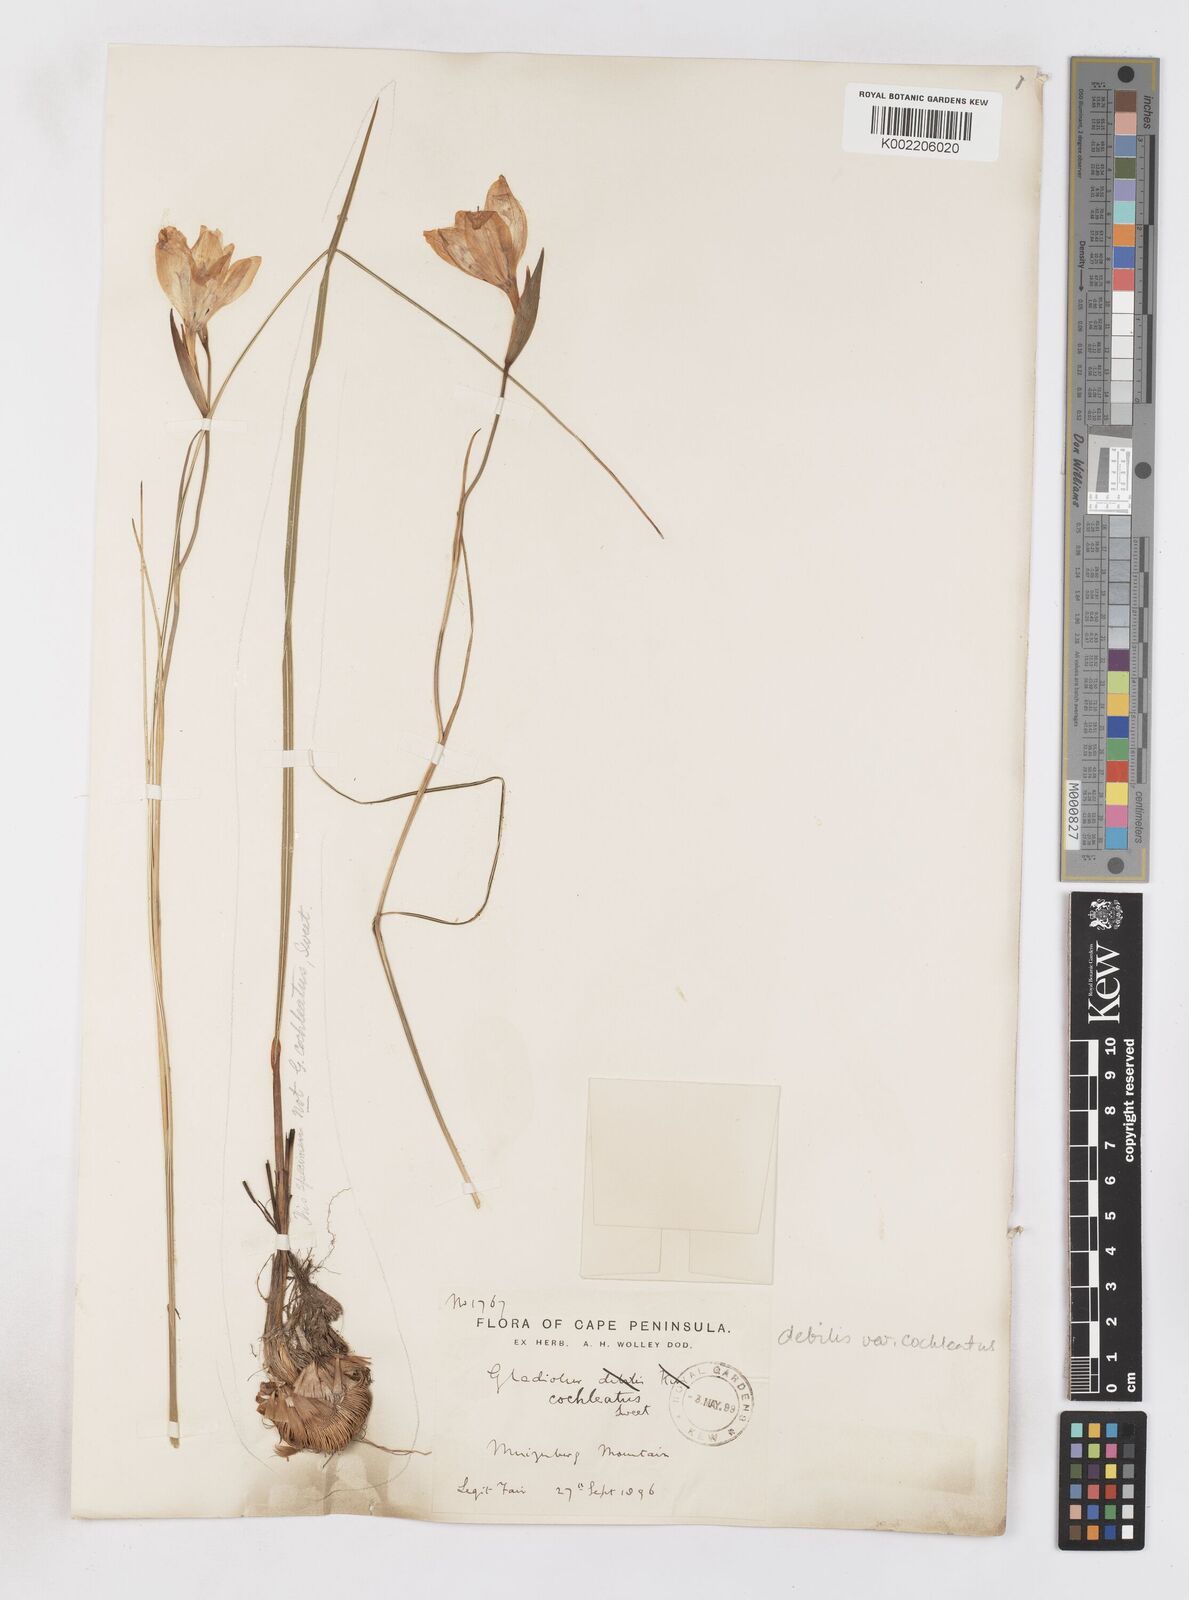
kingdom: Plantae
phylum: Tracheophyta
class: Liliopsida
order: Asparagales
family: Iridaceae
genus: Gladiolus
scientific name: Gladiolus debilis
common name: Painted-lady
